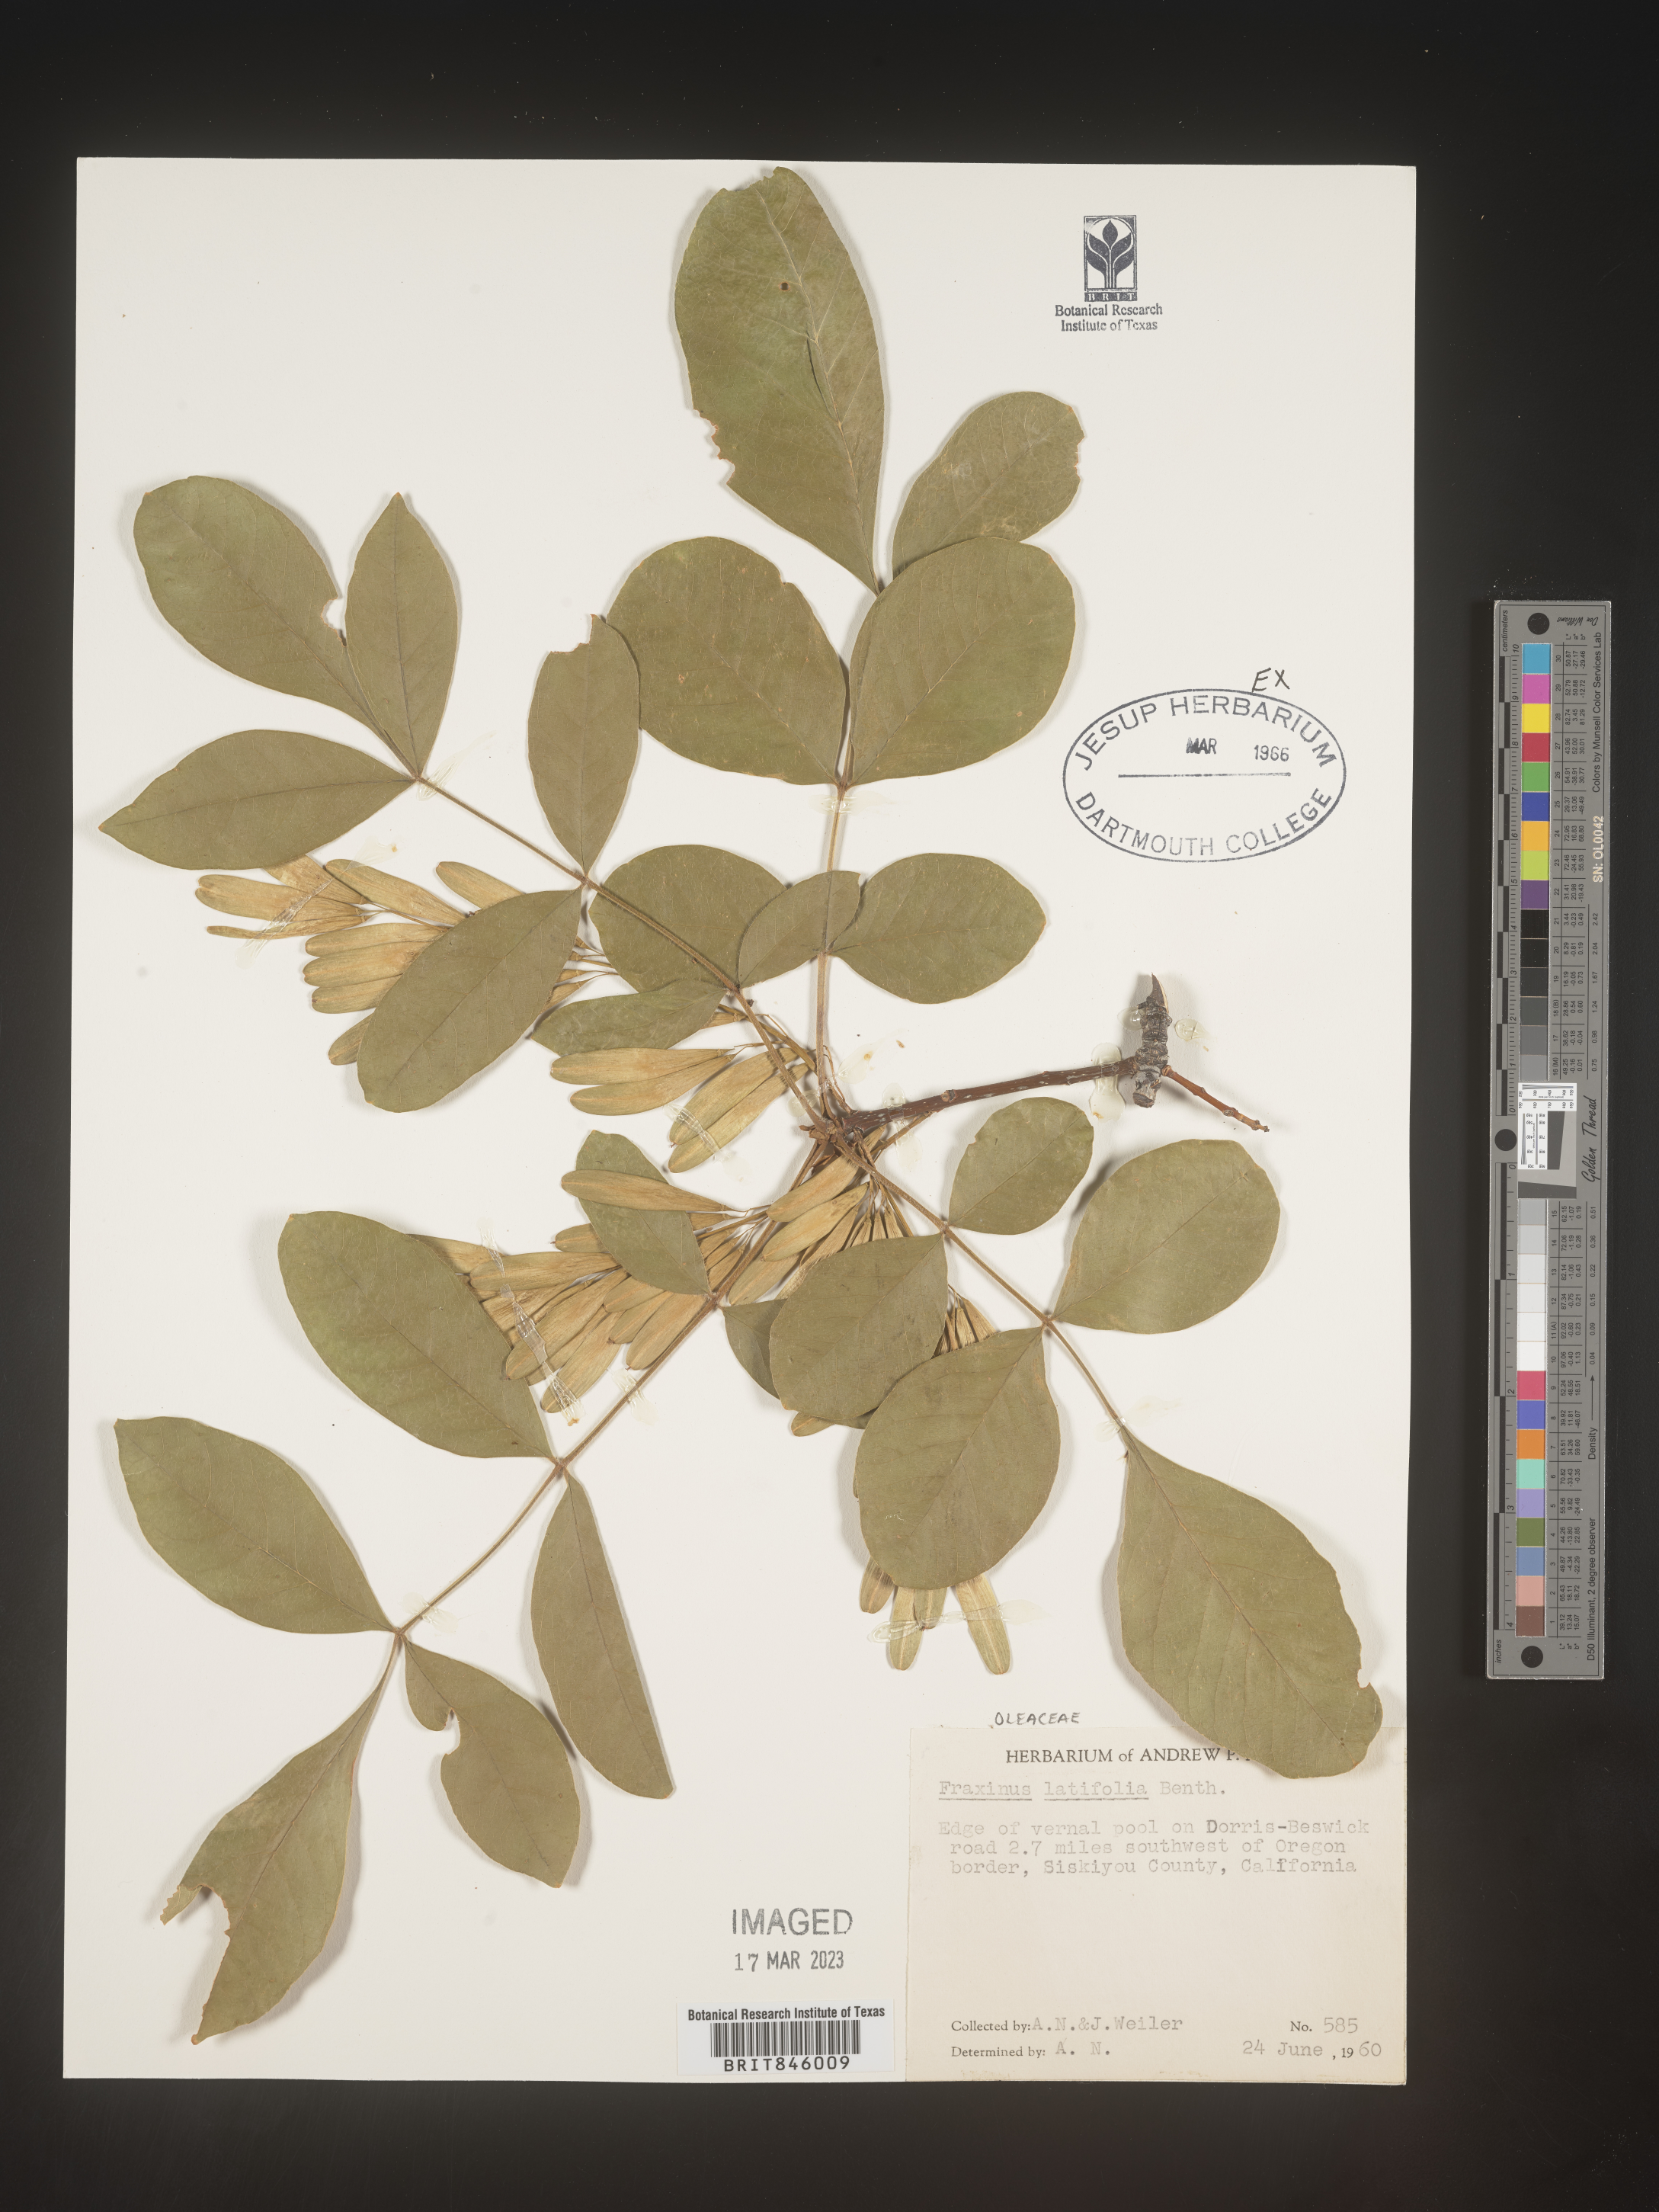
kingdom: Plantae
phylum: Tracheophyta
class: Magnoliopsida
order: Lamiales
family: Oleaceae
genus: Fraxinus
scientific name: Fraxinus latifolia
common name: Oregon ash
